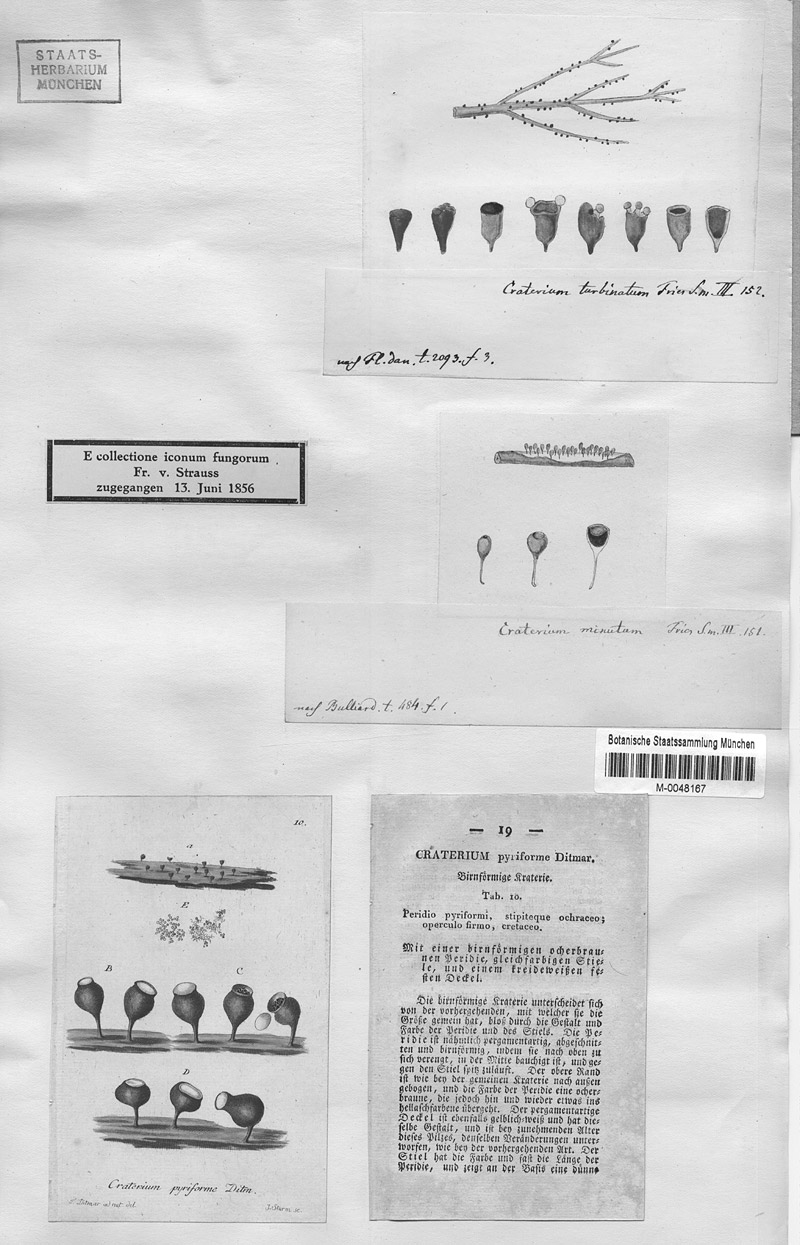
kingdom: Protozoa
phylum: Mycetozoa
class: Myxomycetes
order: Physarales
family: Physaraceae
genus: Craterium
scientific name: Craterium minutum
